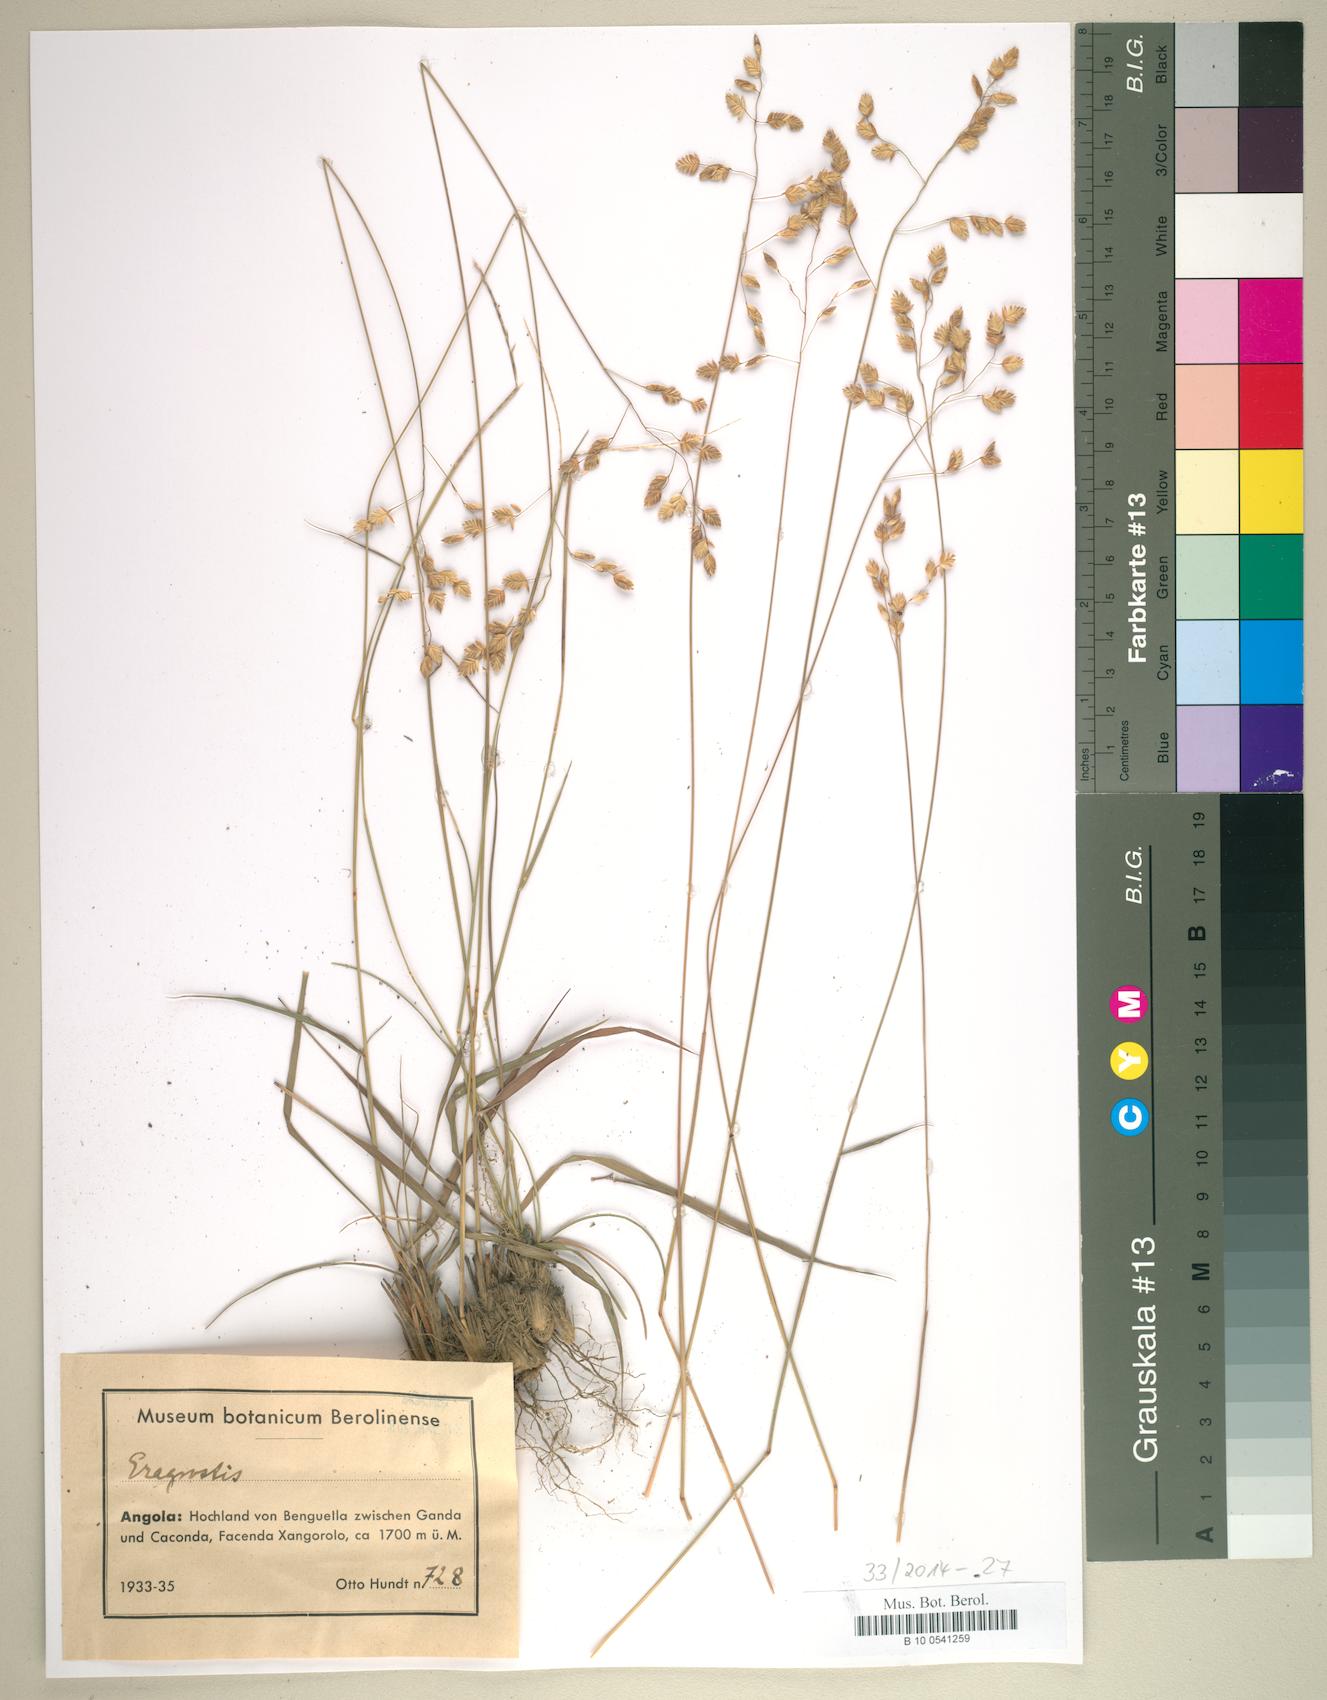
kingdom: Plantae
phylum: Tracheophyta
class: Liliopsida
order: Poales
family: Poaceae
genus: Eragrostis
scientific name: Eragrostis
